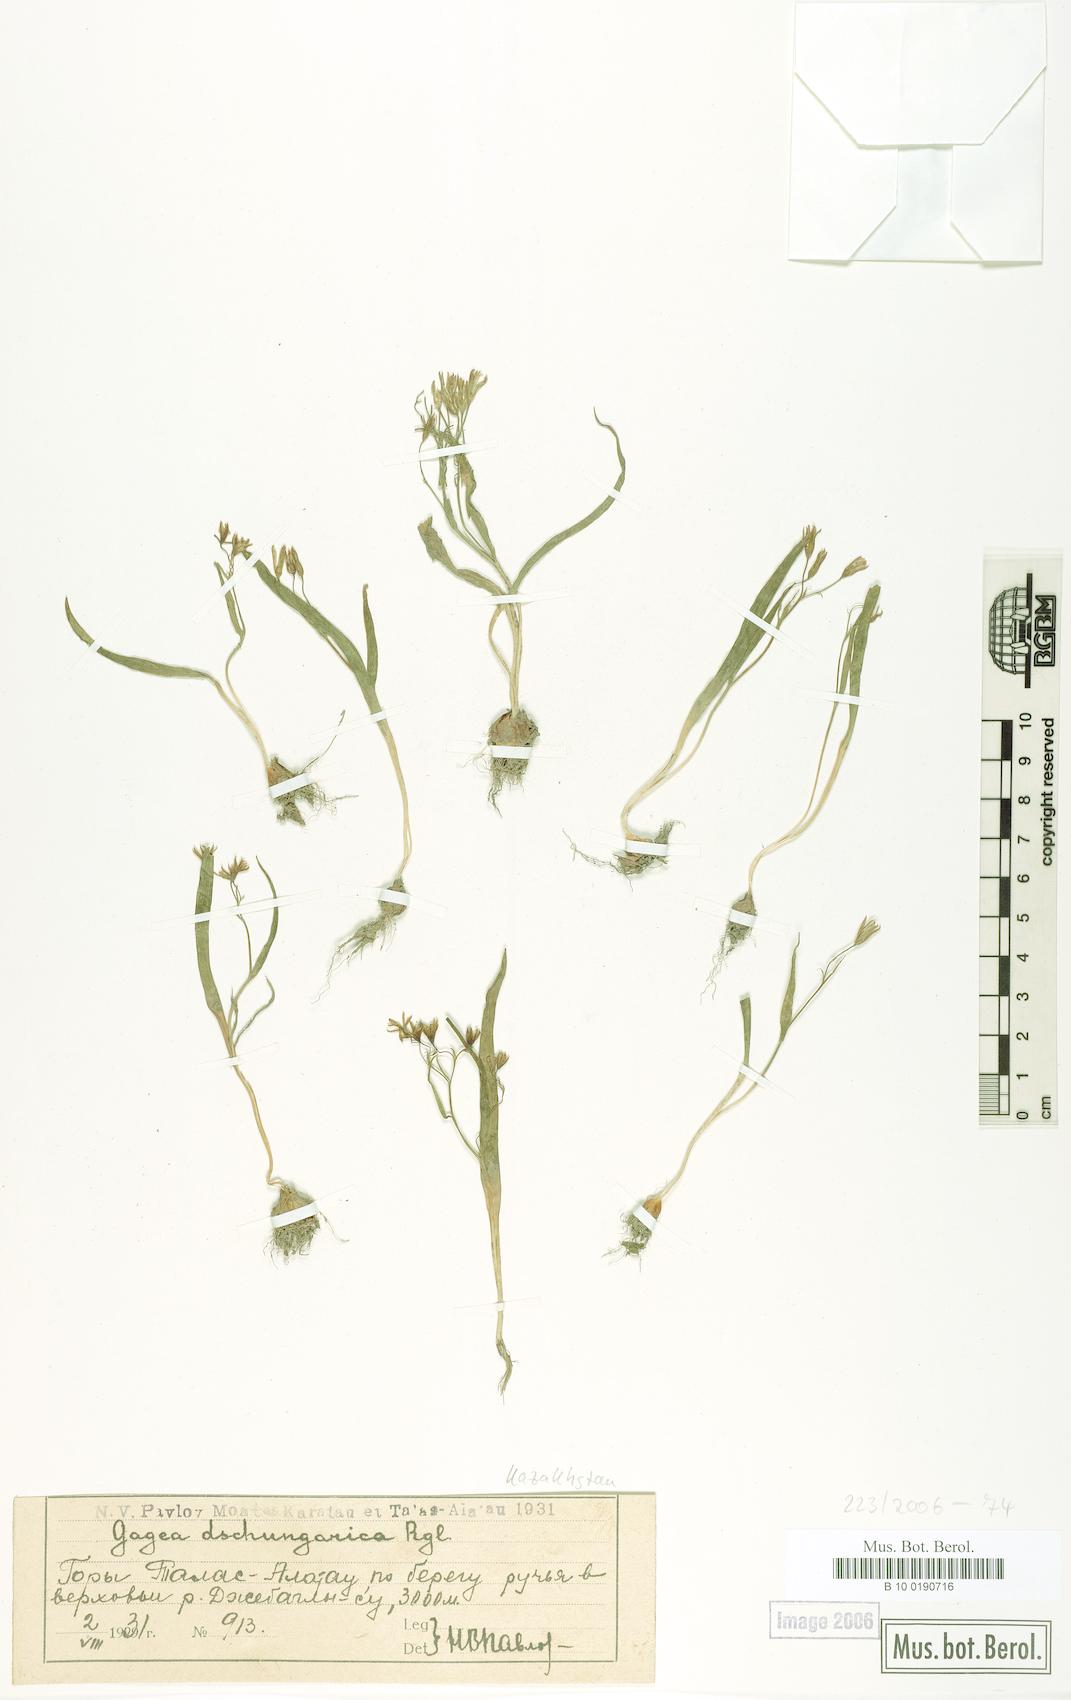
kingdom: Plantae
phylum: Tracheophyta
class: Liliopsida
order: Liliales
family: Liliaceae
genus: Gagea
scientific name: Gagea dschungarica
